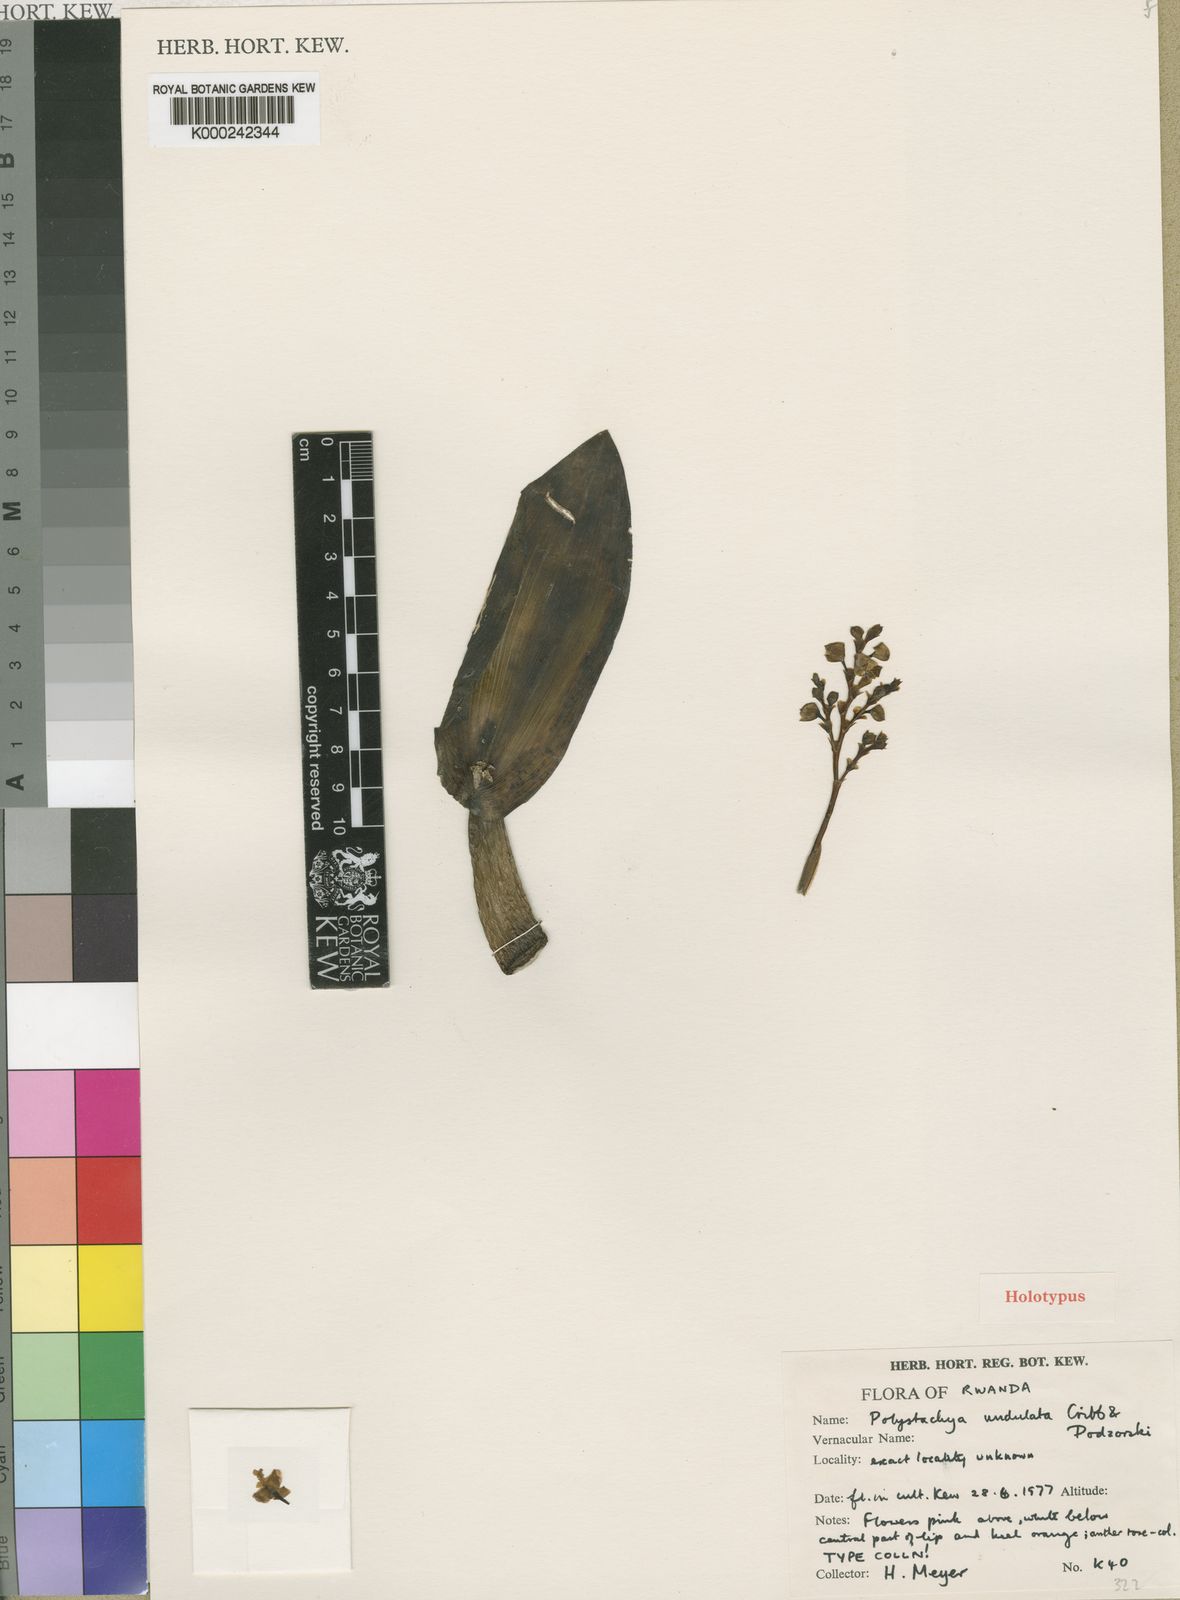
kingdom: Plantae
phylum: Tracheophyta
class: Liliopsida
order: Asparagales
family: Orchidaceae
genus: Polystachya
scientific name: Polystachya undulata
